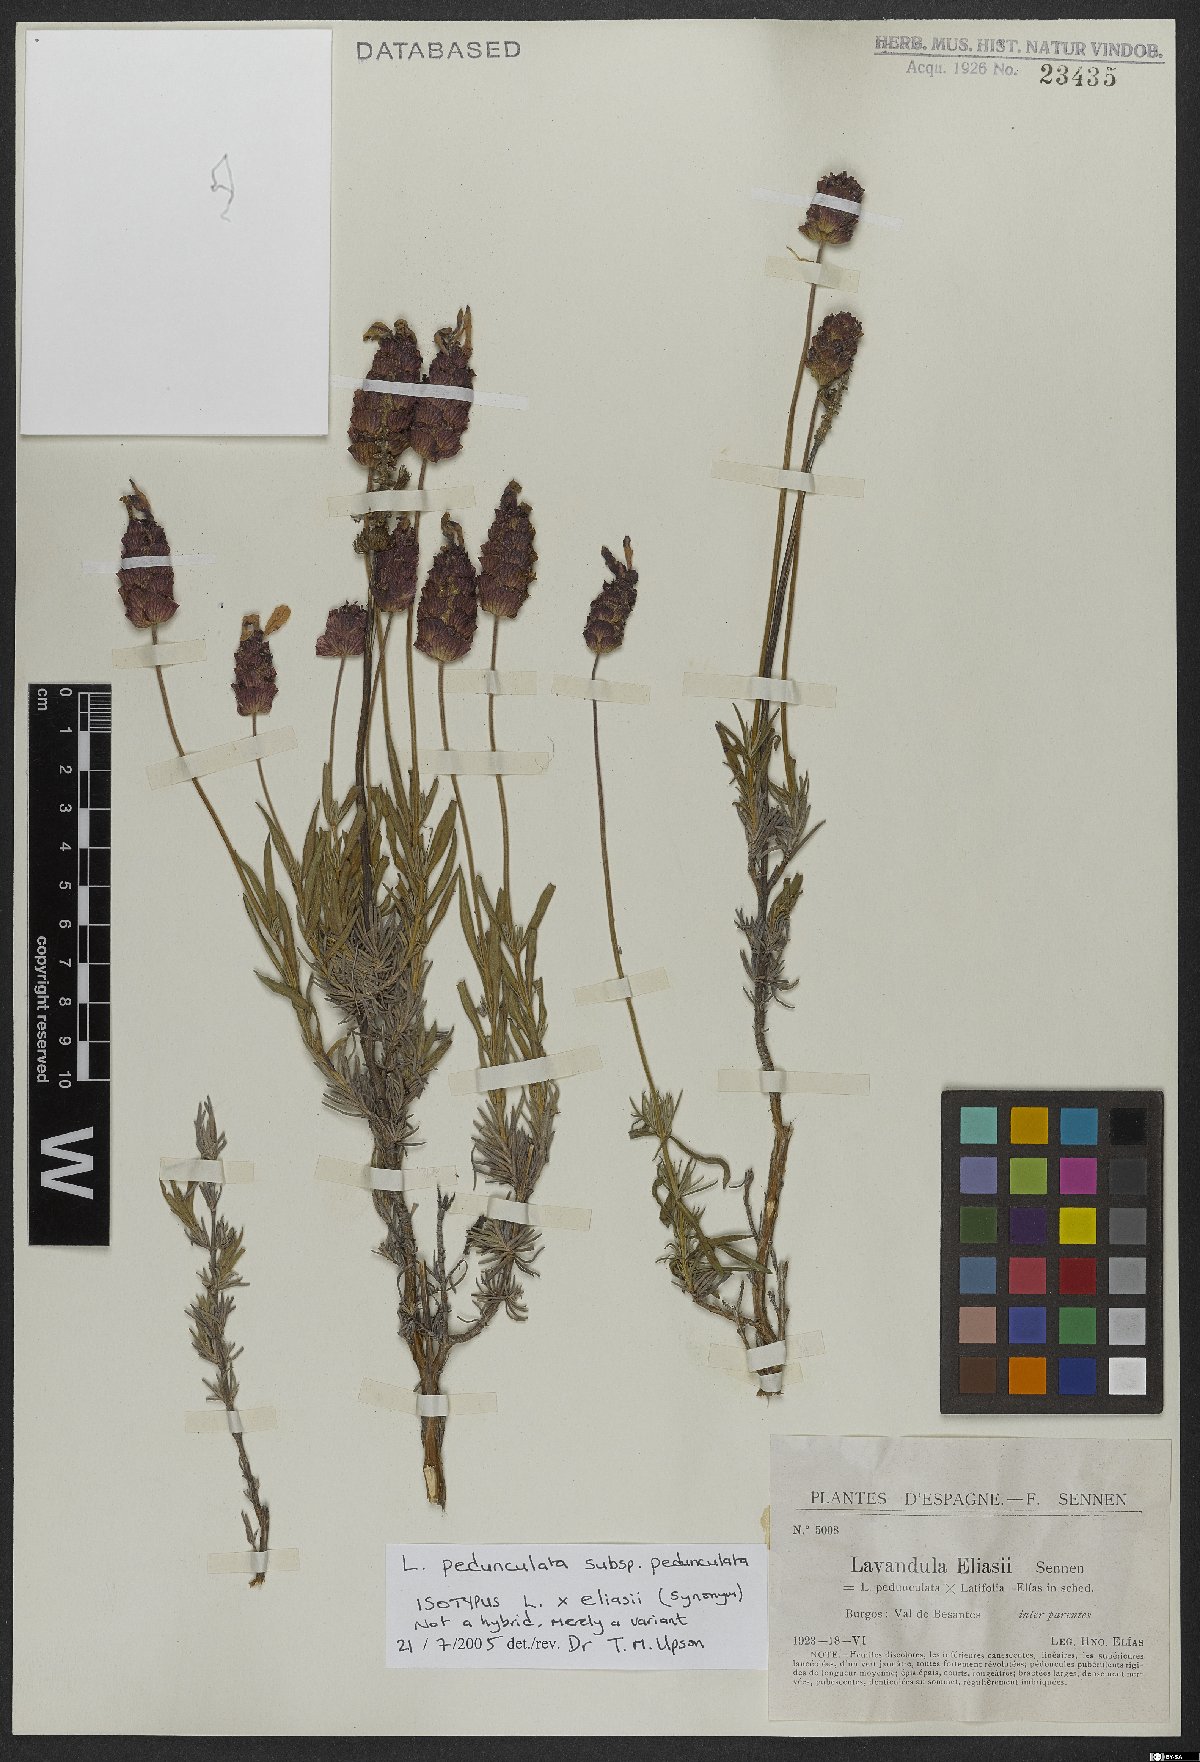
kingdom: Plantae
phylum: Tracheophyta
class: Magnoliopsida
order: Lamiales
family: Lamiaceae
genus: Lavandula
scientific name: Lavandula pedunculata
